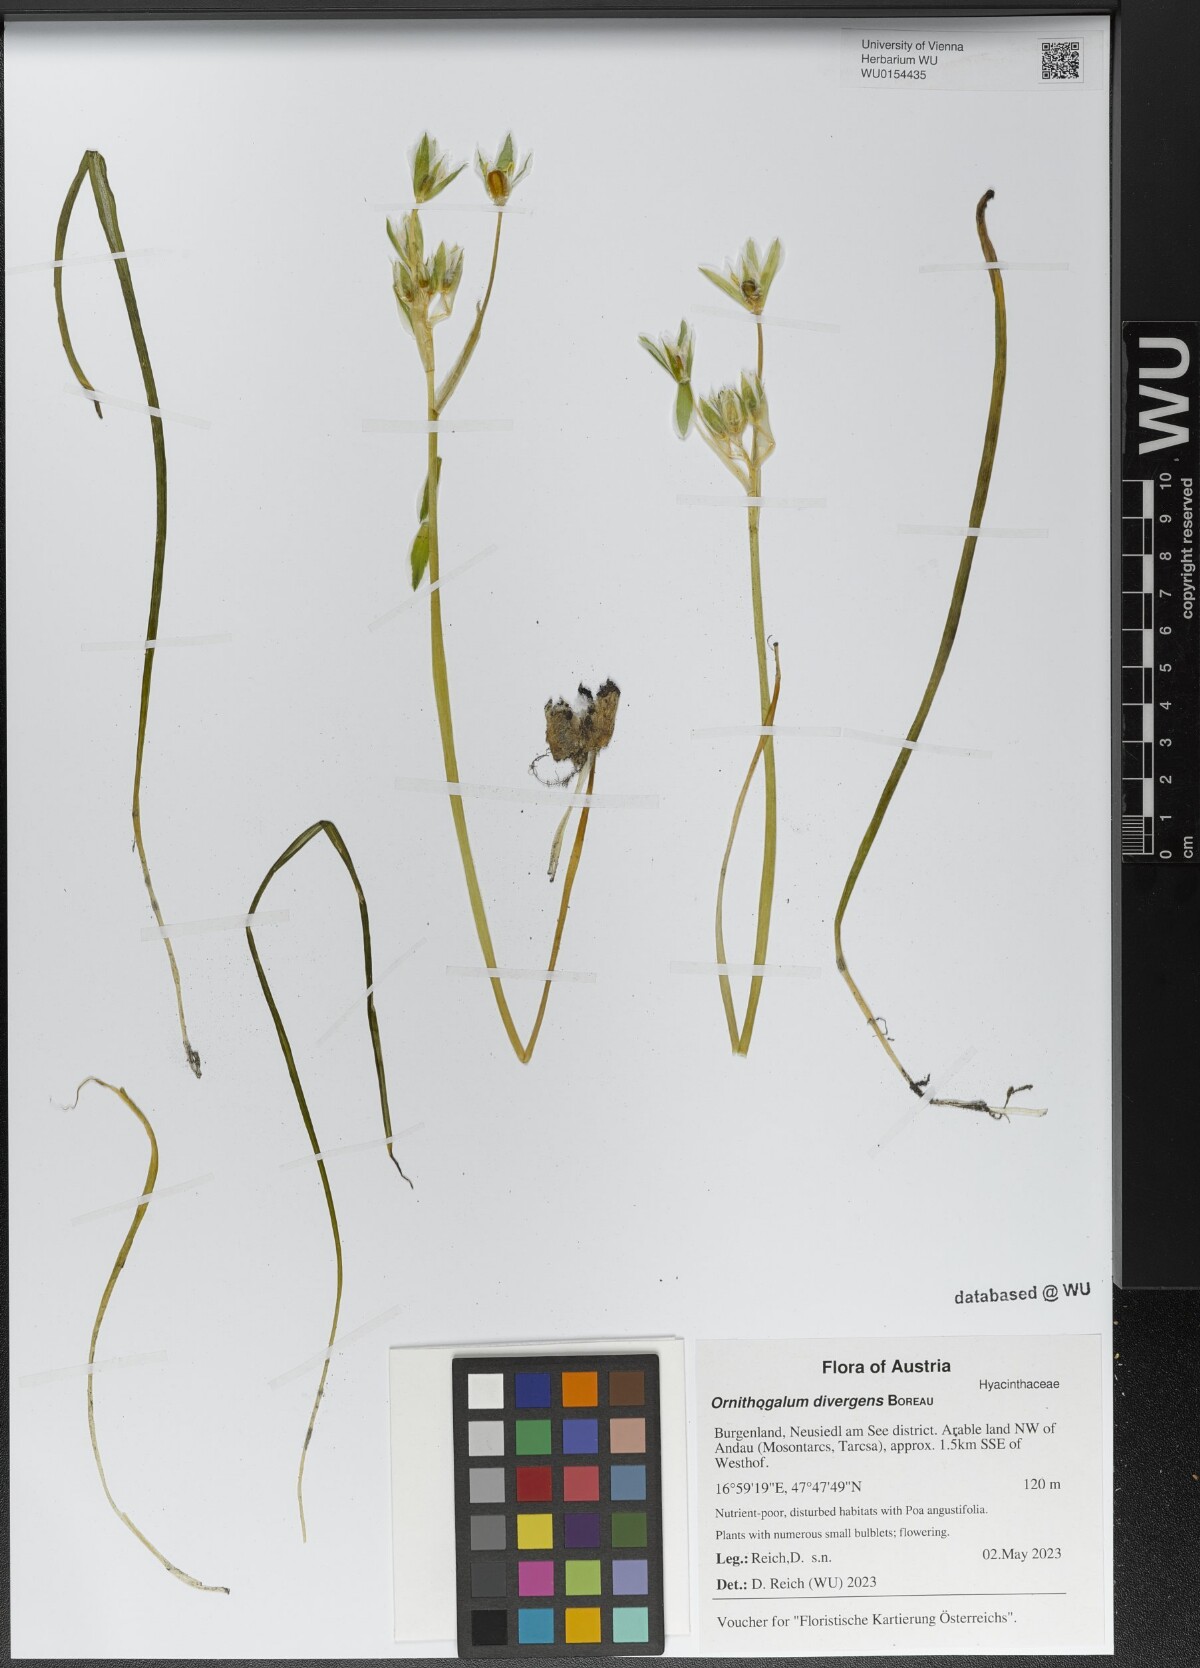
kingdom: Plantae
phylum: Tracheophyta
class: Liliopsida
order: Asparagales
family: Asparagaceae
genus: Ornithogalum
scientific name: Ornithogalum divergens
